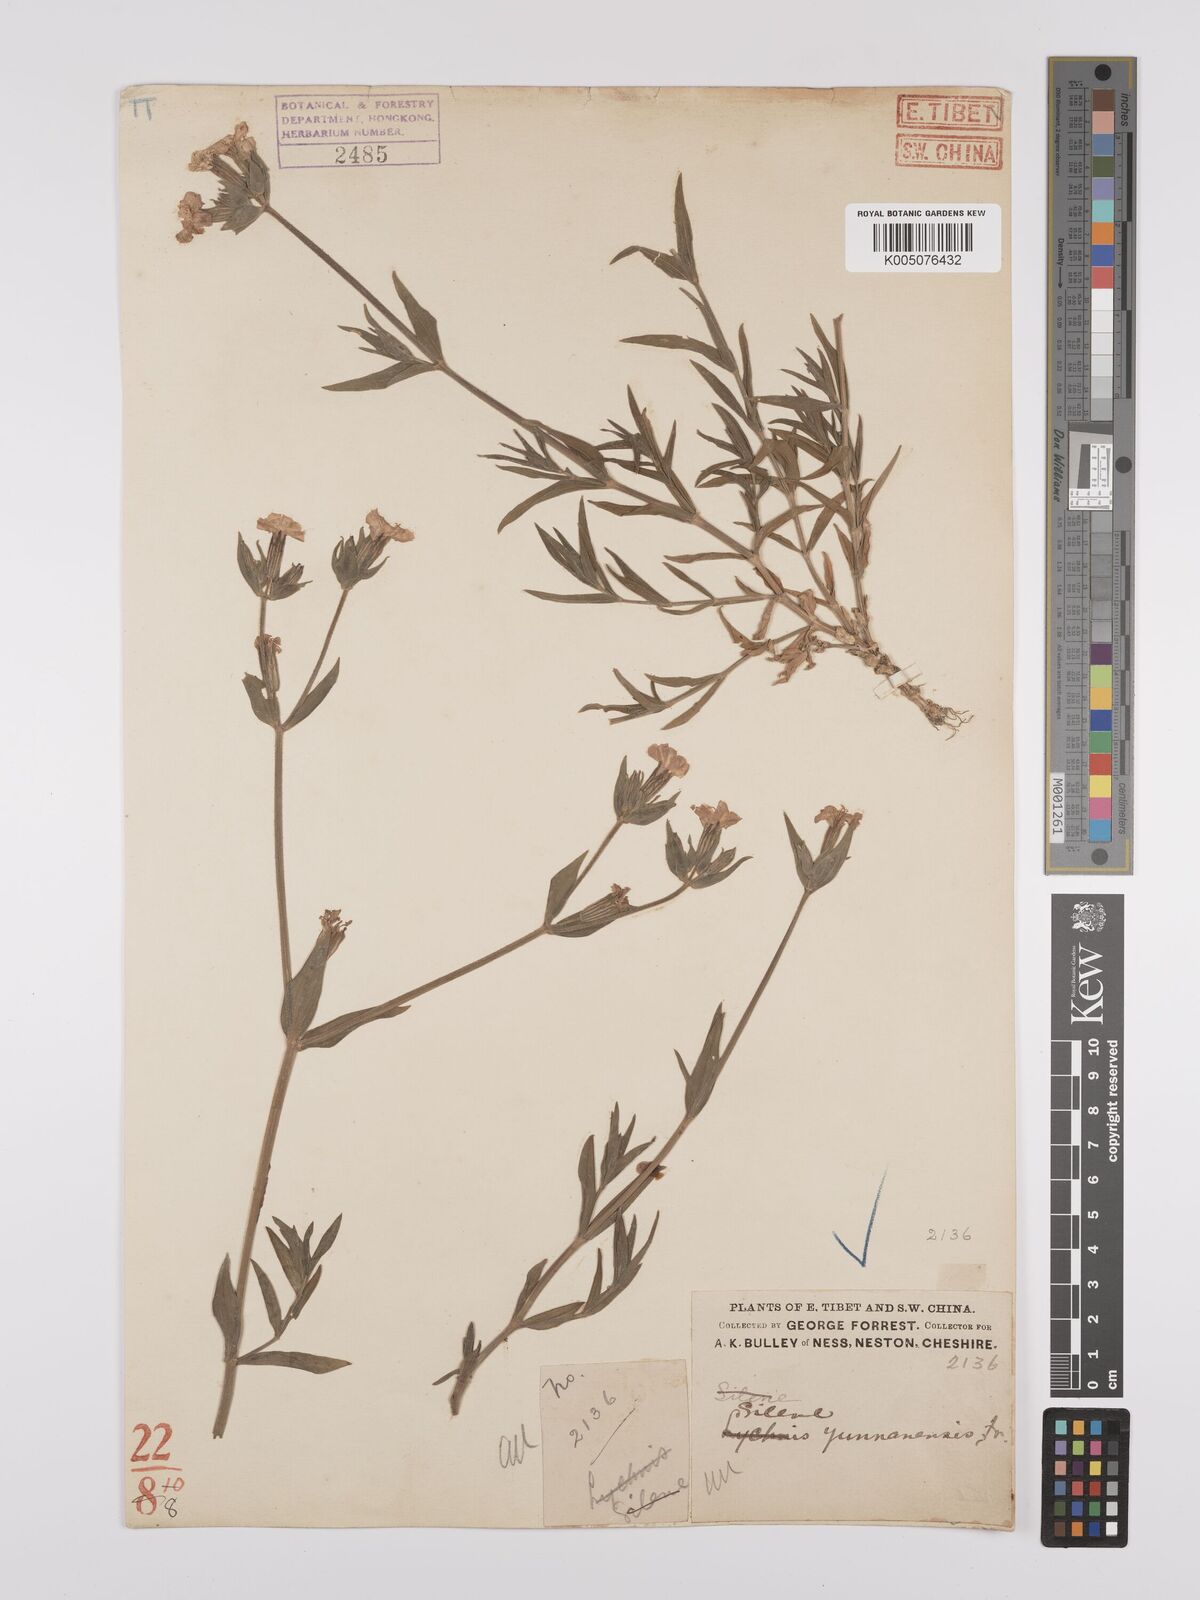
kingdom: Plantae
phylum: Tracheophyta
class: Magnoliopsida
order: Caryophyllales
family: Caryophyllaceae
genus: Silene
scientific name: Silene yunnanensis
